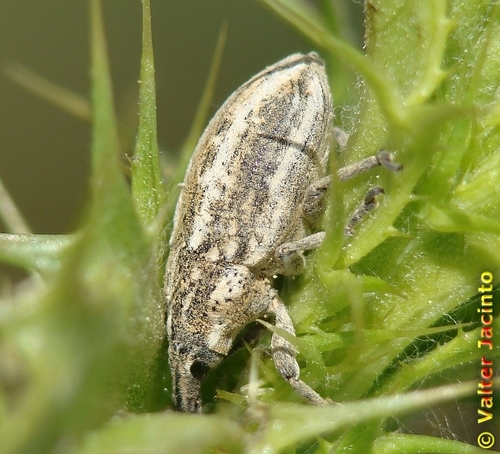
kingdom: Animalia
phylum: Arthropoda
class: Insecta
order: Coleoptera
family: Curculionidae
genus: Mecaspis
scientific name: Mecaspis bedeli
